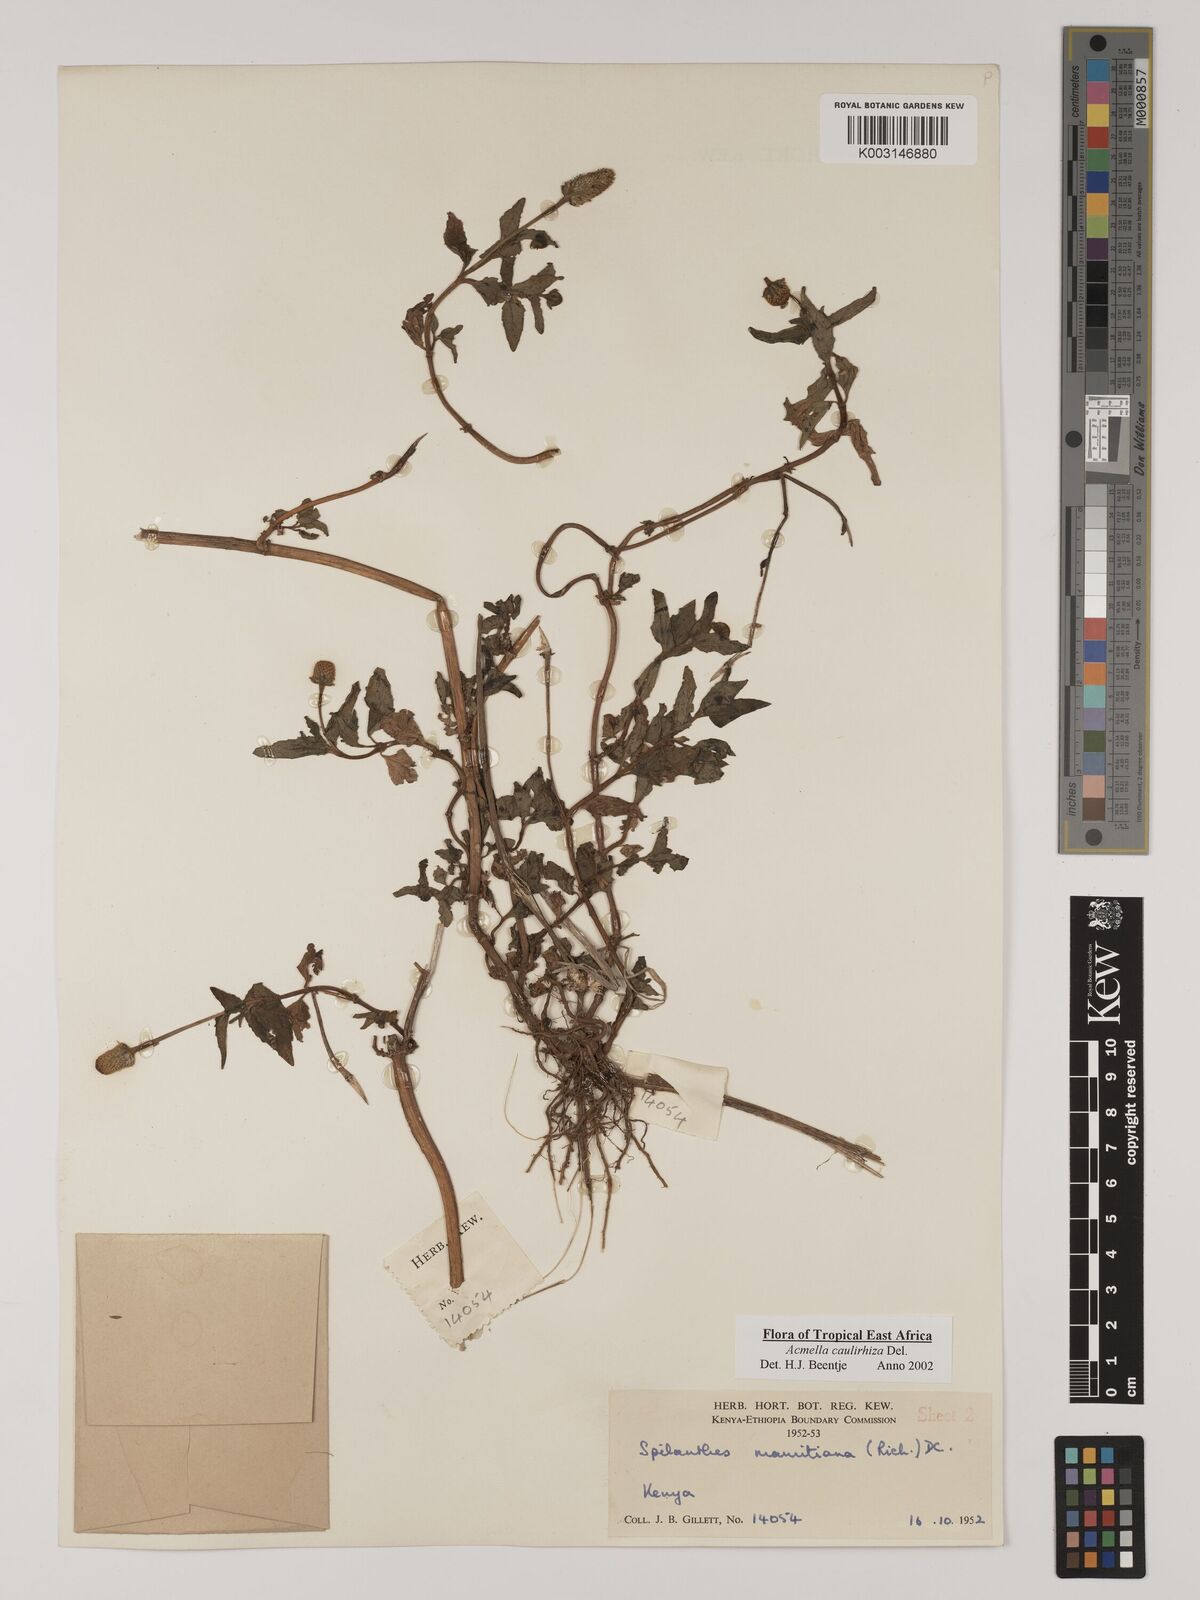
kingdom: Plantae
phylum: Tracheophyta
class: Magnoliopsida
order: Asterales
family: Asteraceae
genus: Acmella
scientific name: Acmella caulirhiza
